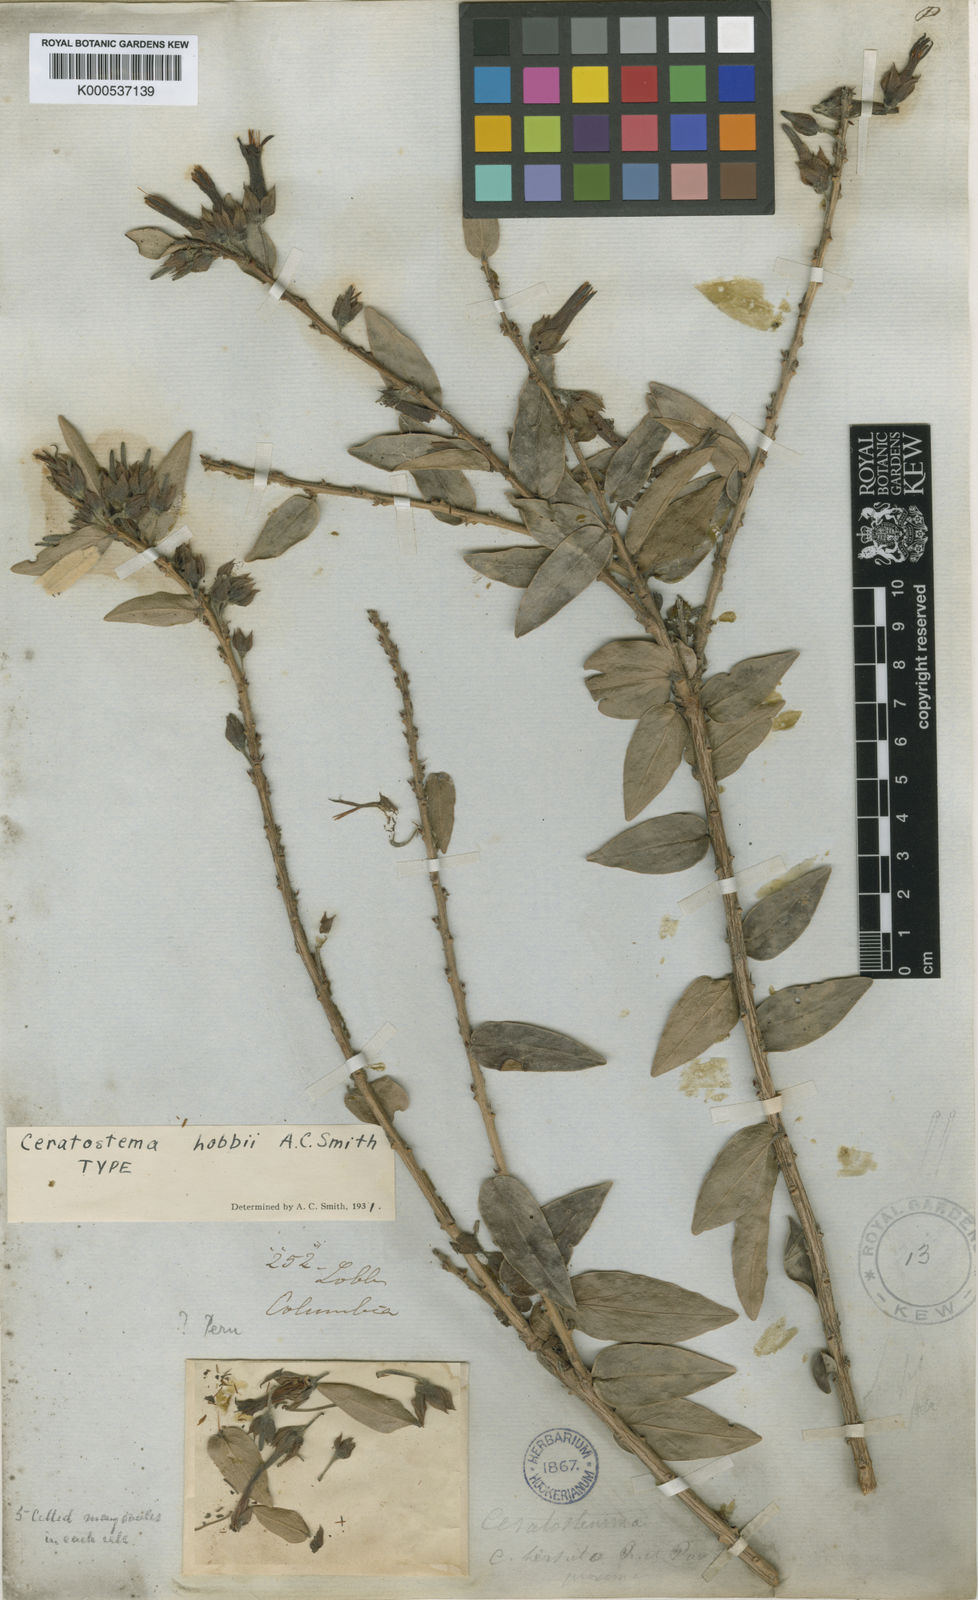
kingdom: Plantae
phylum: Tracheophyta
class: Magnoliopsida
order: Ericales
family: Ericaceae
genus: Pellegrinia
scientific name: Pellegrinia hirsuta
